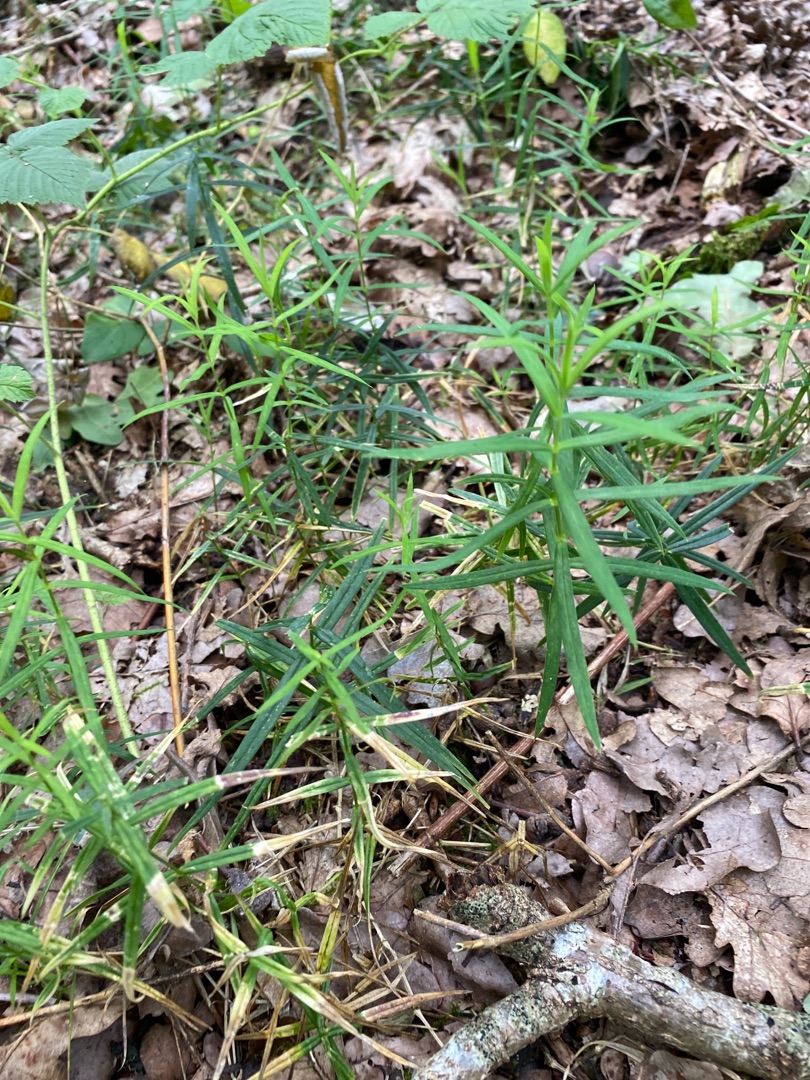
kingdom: Plantae
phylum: Tracheophyta
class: Magnoliopsida
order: Caryophyllales
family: Caryophyllaceae
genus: Rabelera
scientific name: Rabelera holostea
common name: Stor fladstjerne
